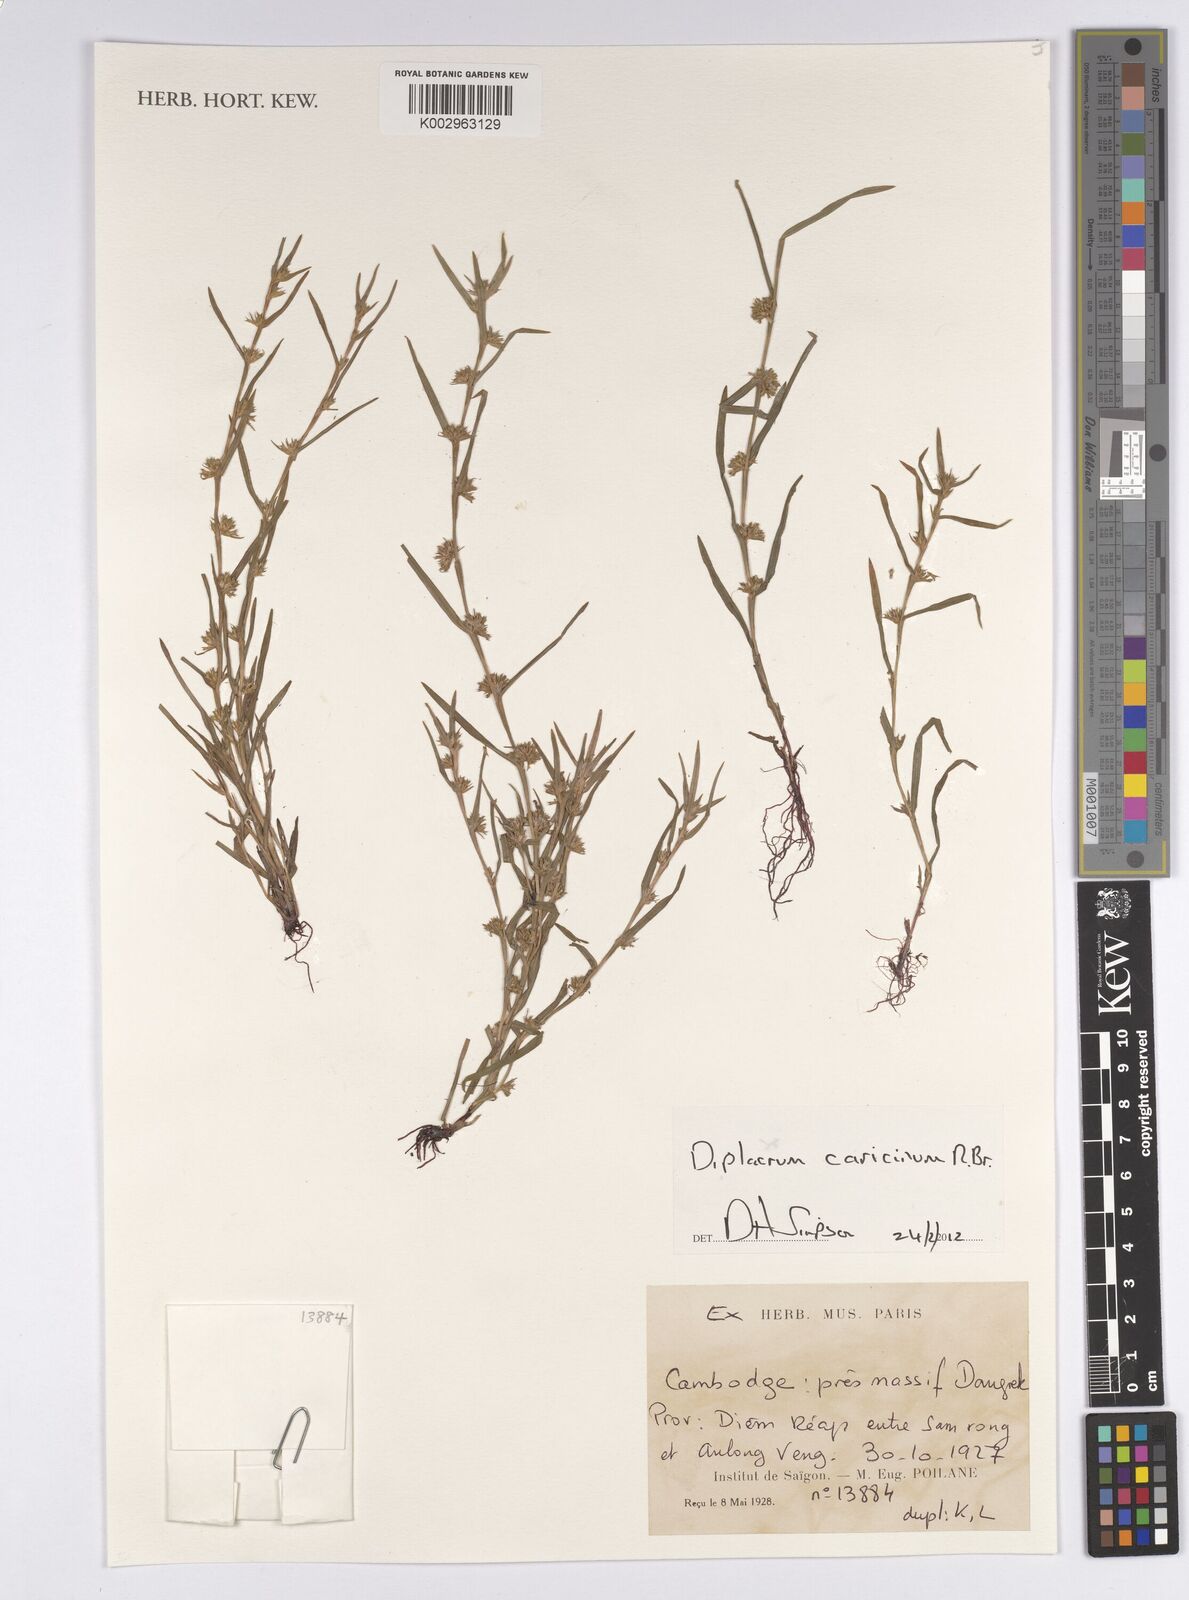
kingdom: Plantae
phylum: Tracheophyta
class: Liliopsida
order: Poales
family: Cyperaceae
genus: Diplacrum
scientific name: Diplacrum caricinum
